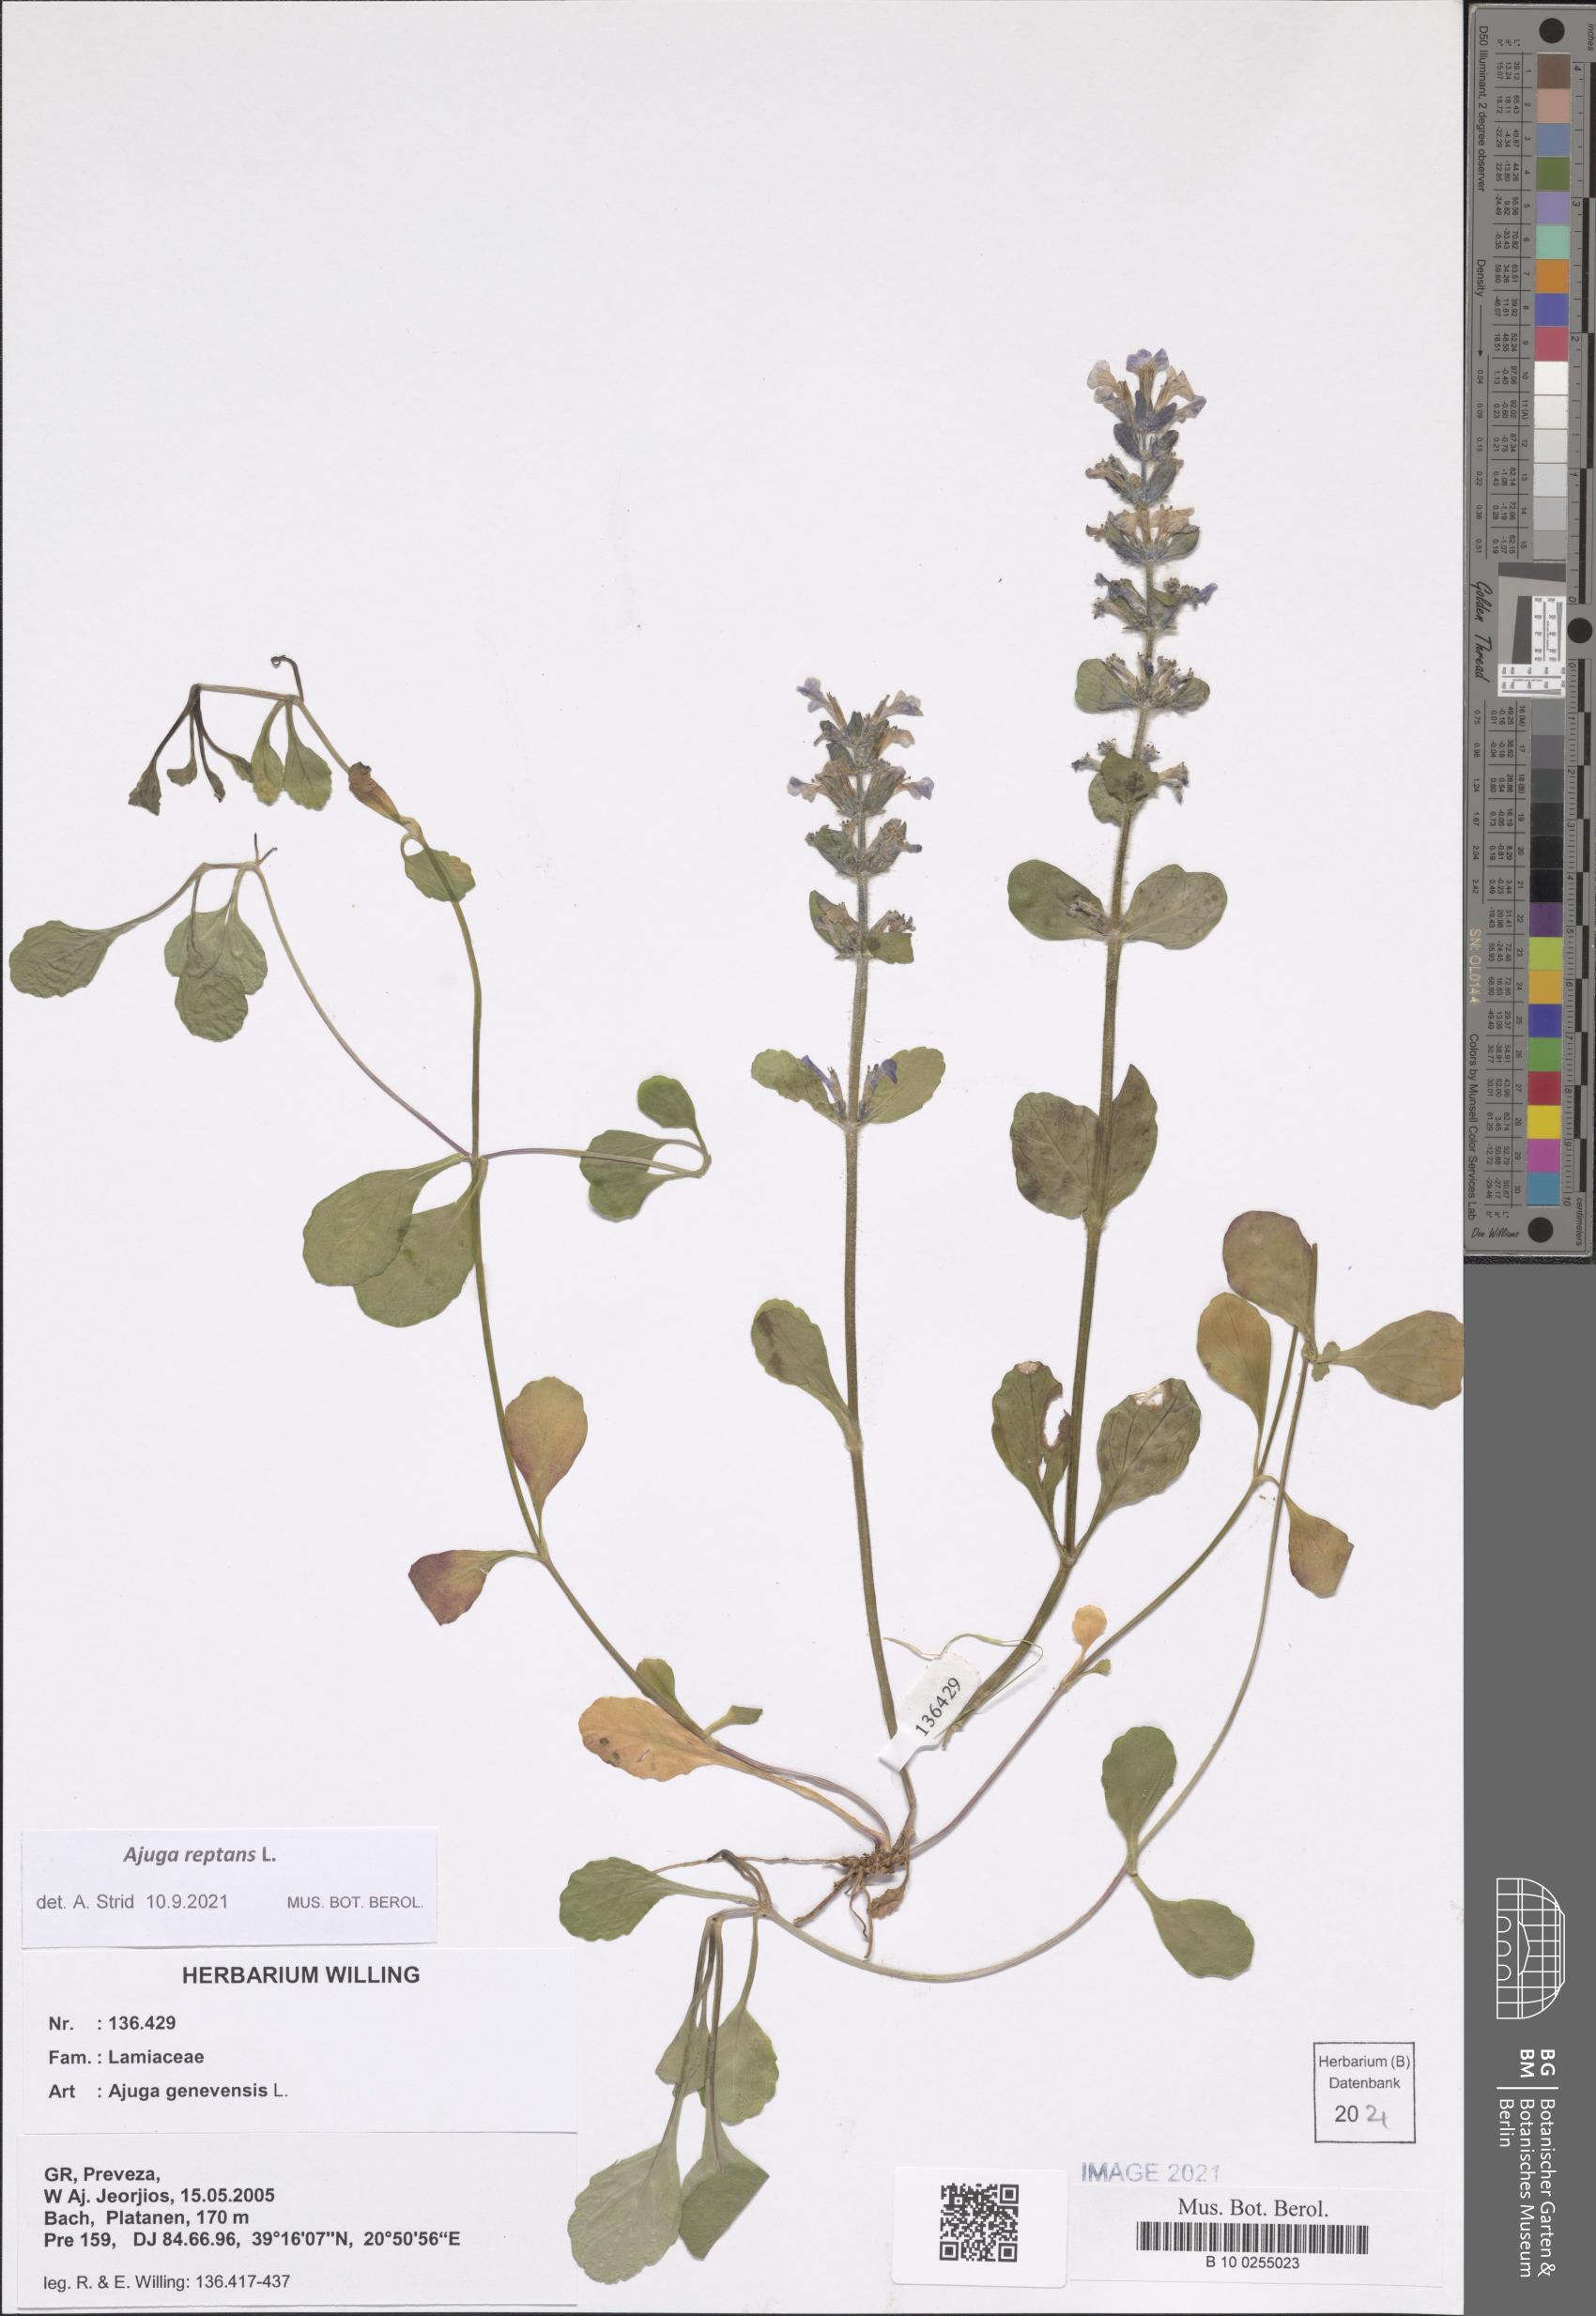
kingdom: Plantae
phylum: Tracheophyta
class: Magnoliopsida
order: Lamiales
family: Lamiaceae
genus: Ajuga
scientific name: Ajuga reptans
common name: Bugle
